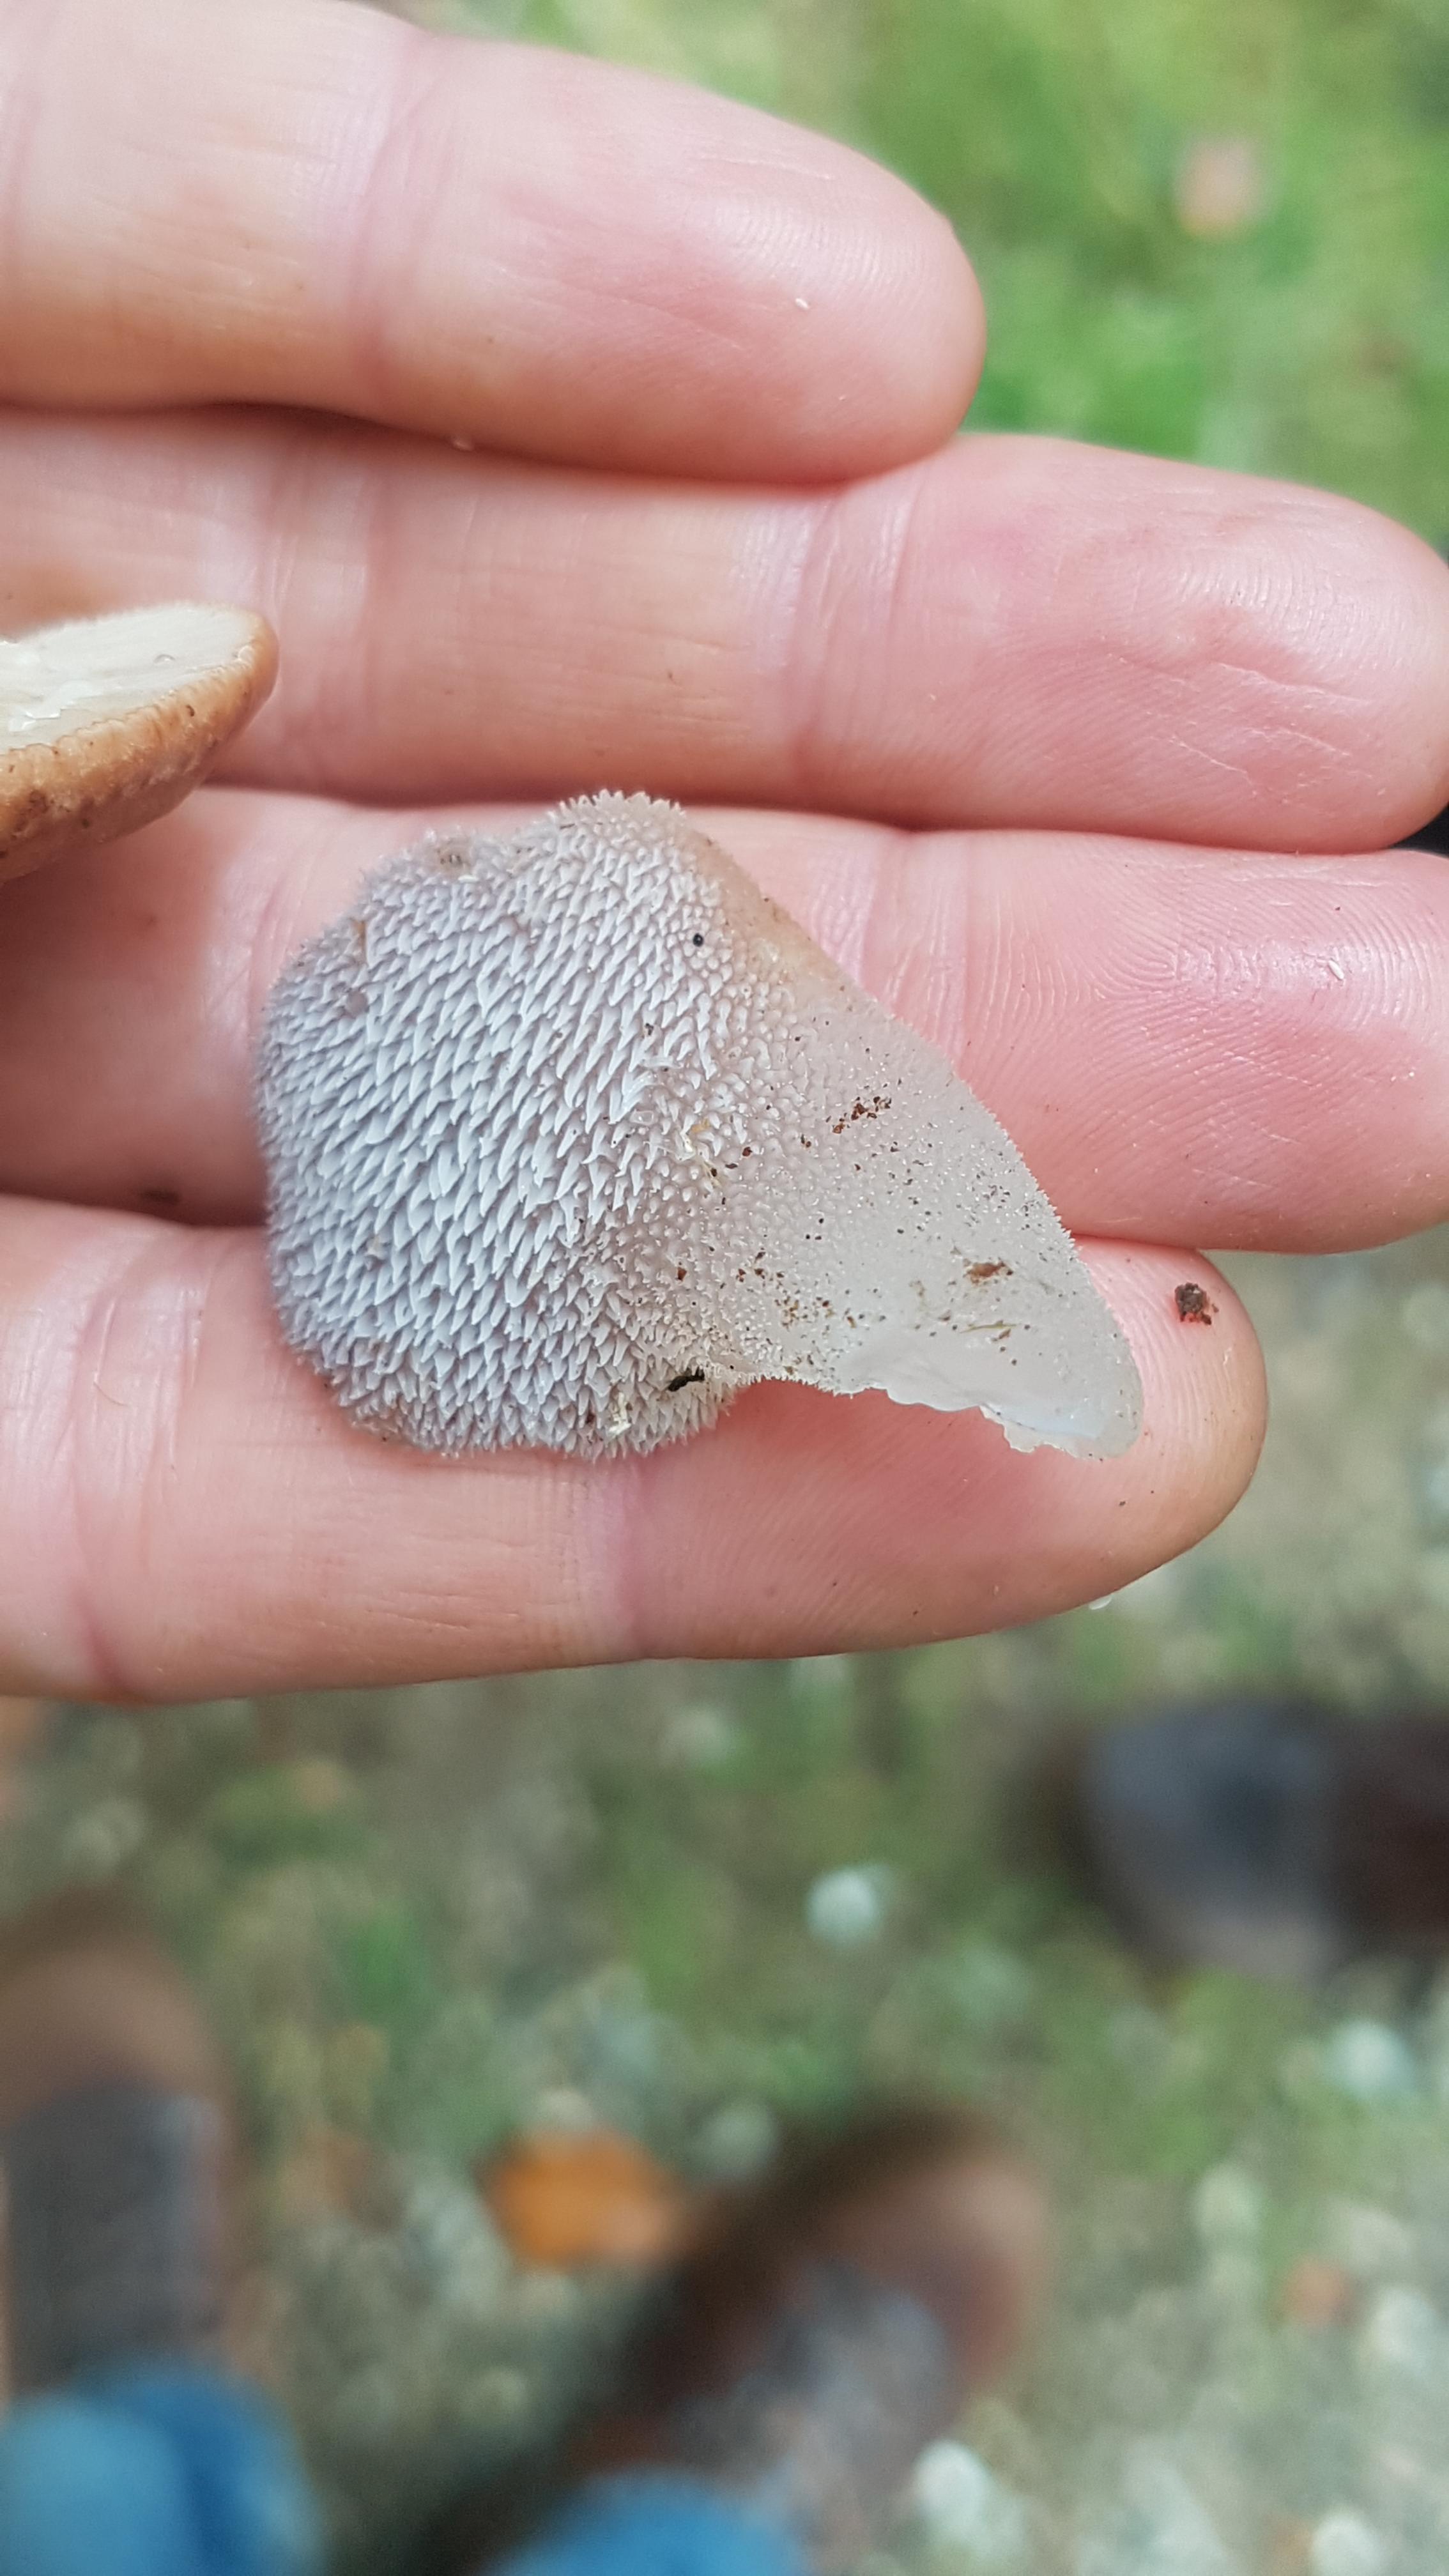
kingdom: Fungi
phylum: Basidiomycota
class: Agaricomycetes
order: Auriculariales
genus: Pseudohydnum
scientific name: Pseudohydnum gelatinosum
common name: bævretand
